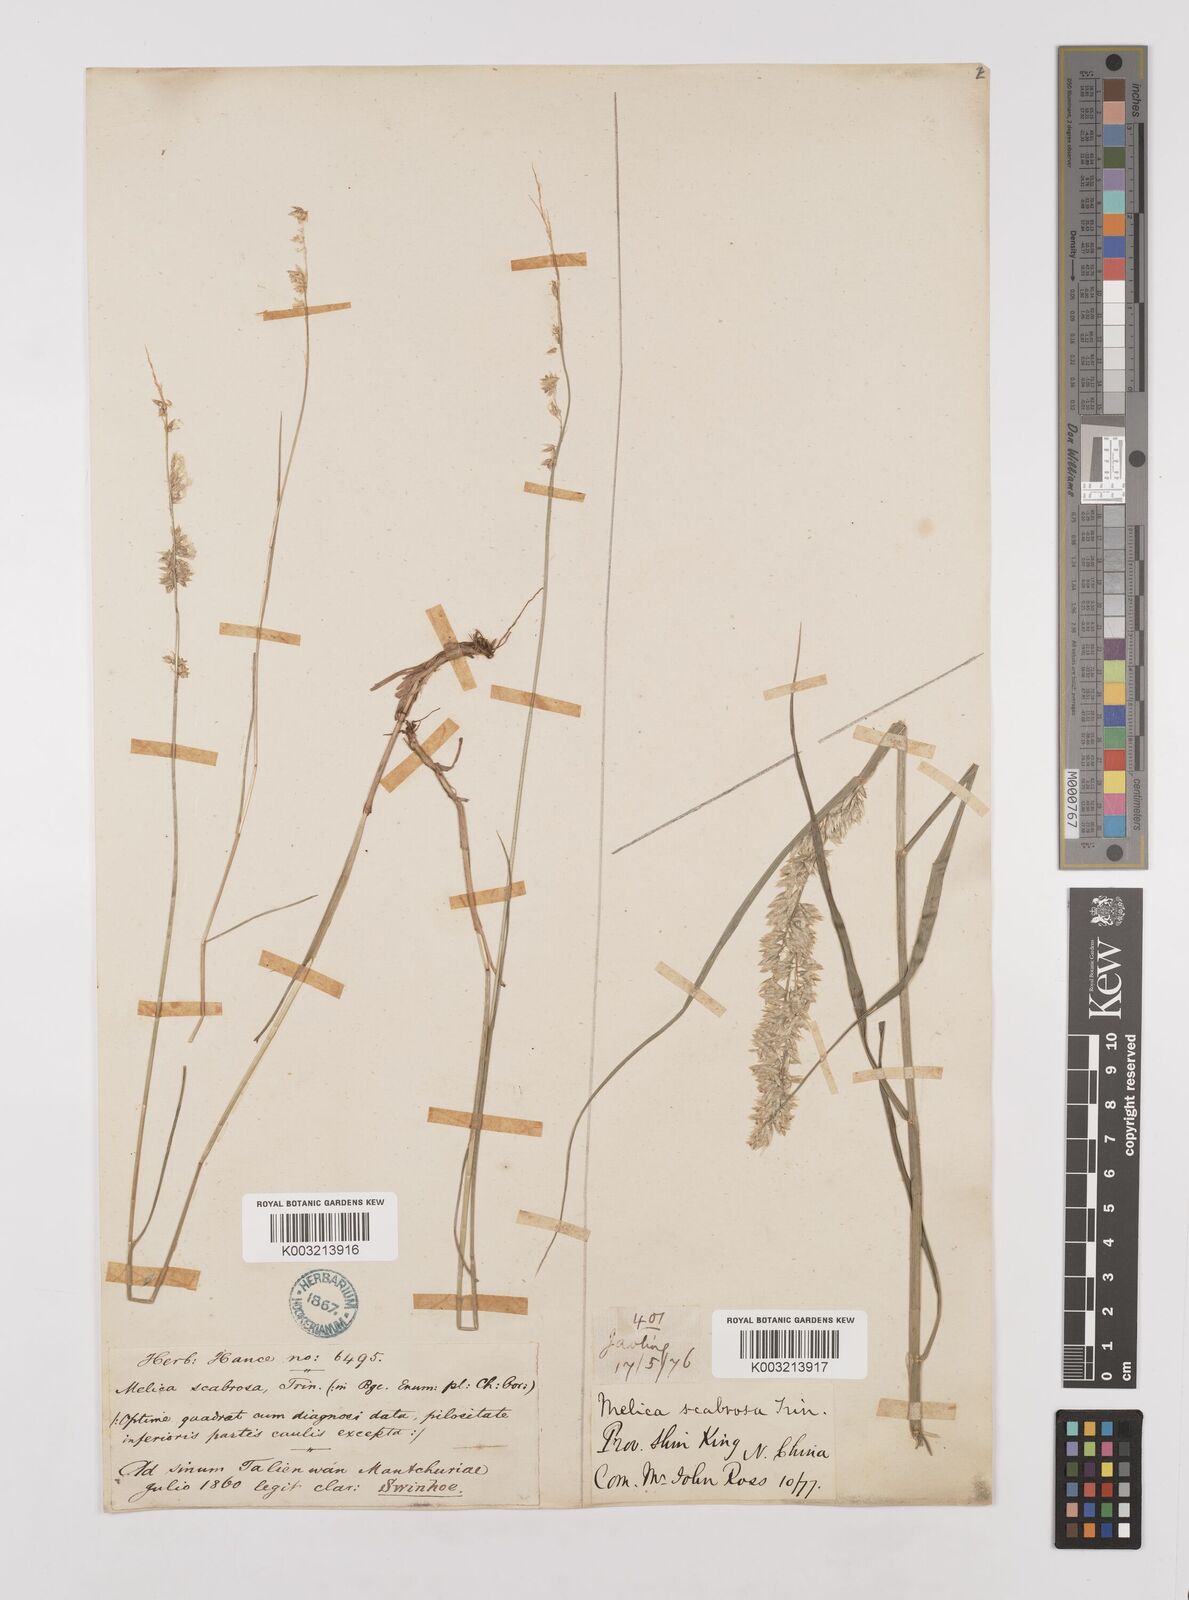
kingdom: Plantae
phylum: Tracheophyta
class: Liliopsida
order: Poales
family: Poaceae
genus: Melica
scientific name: Melica scabrosa
